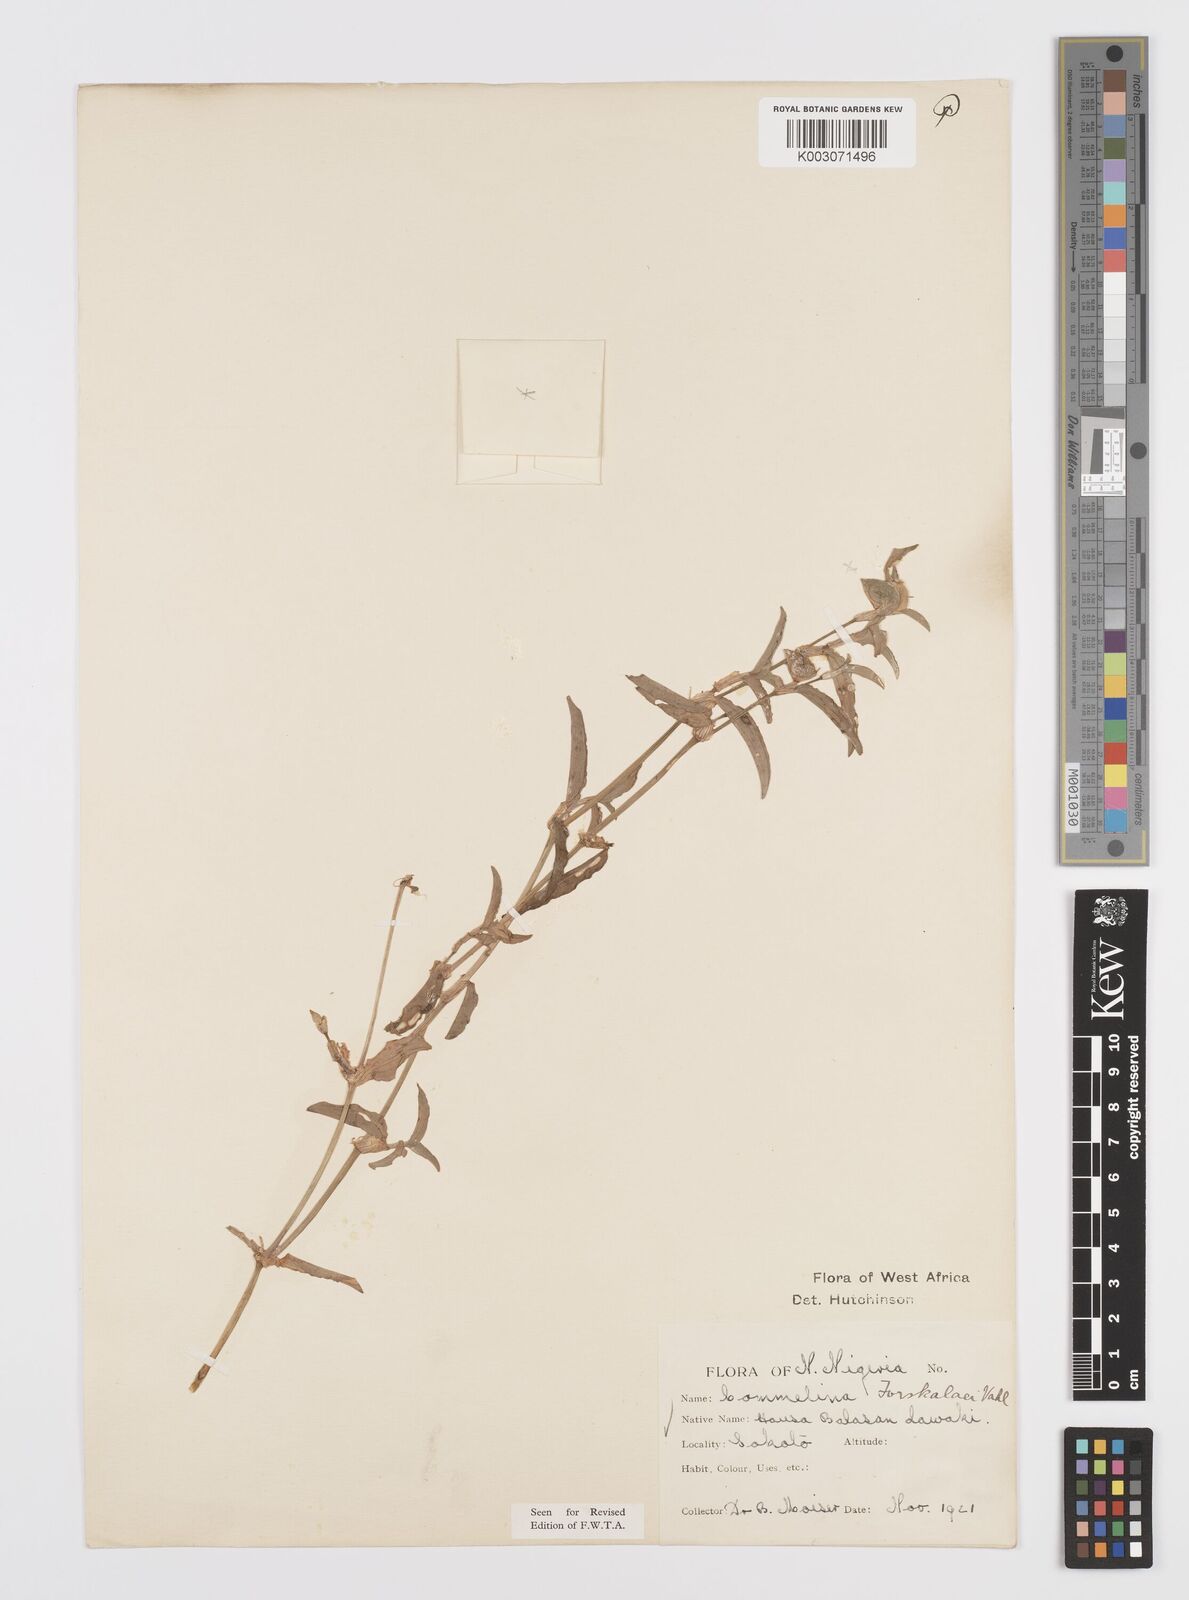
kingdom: Plantae
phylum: Tracheophyta
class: Liliopsida
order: Commelinales
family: Commelinaceae
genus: Commelina
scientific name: Commelina forskaolii
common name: Rat's ear
